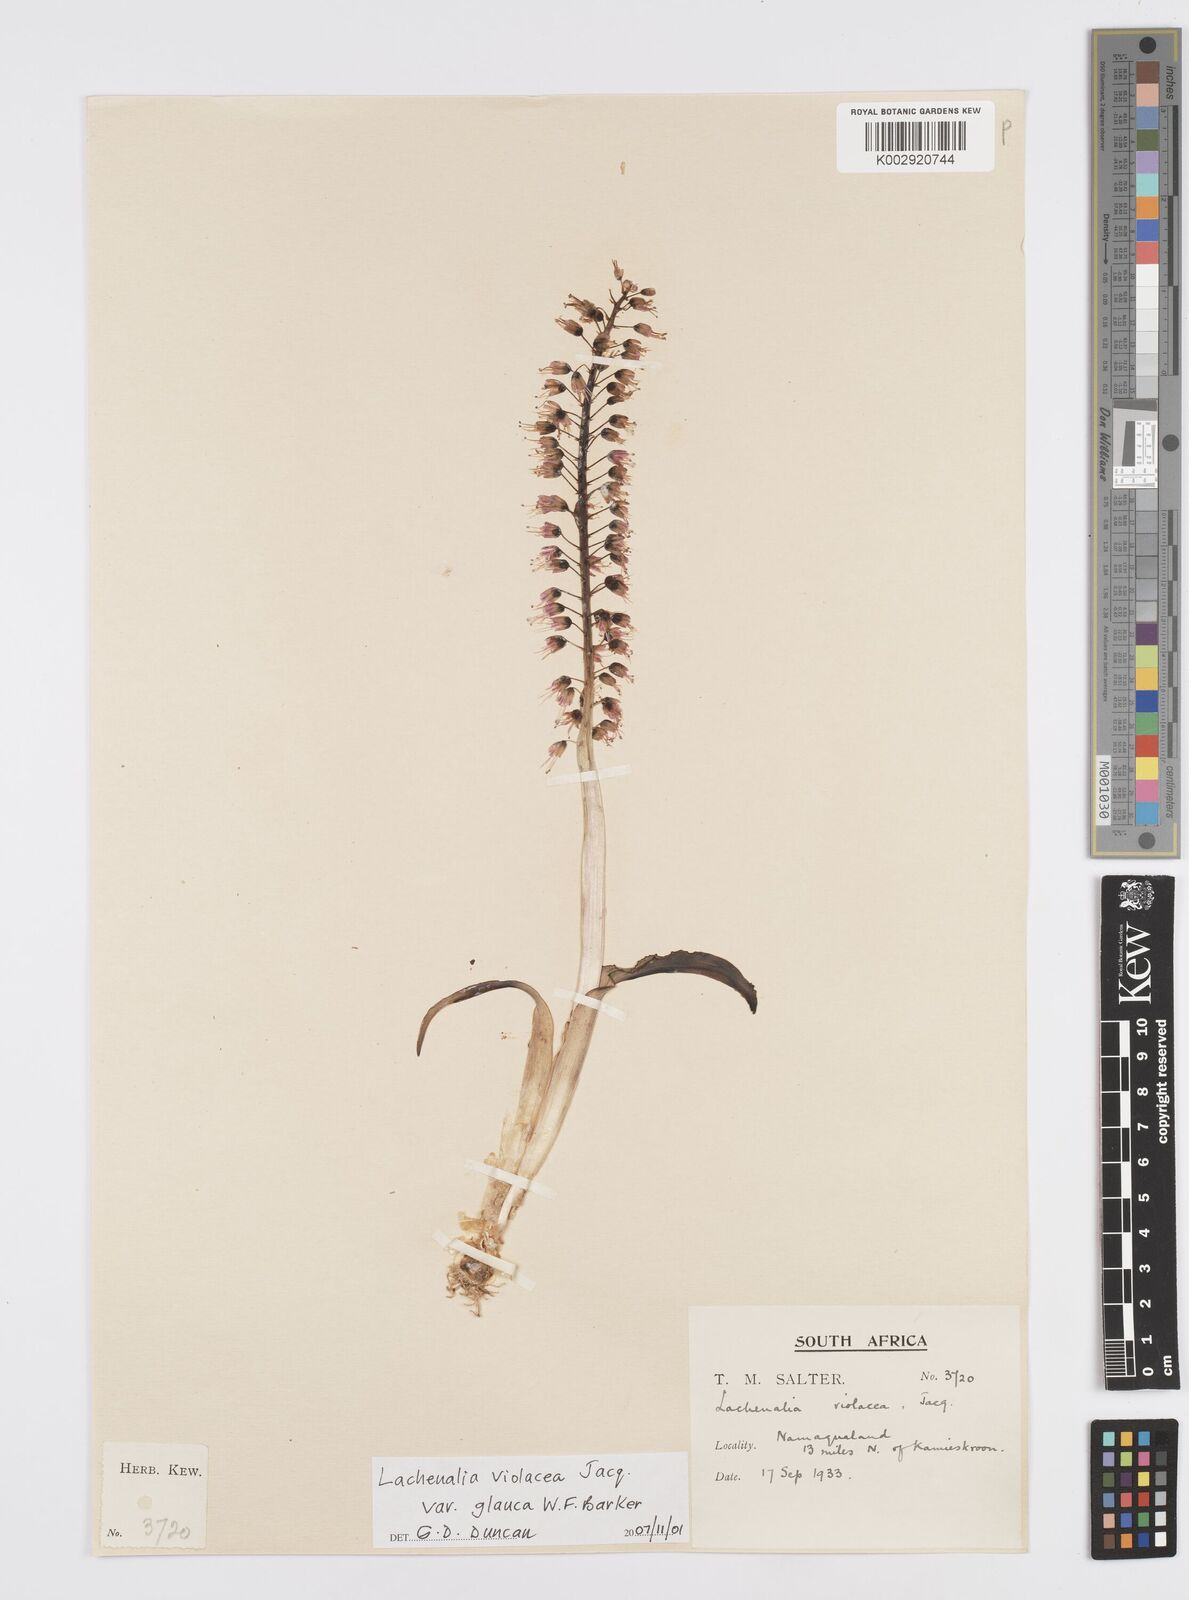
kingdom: Plantae
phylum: Tracheophyta
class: Liliopsida
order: Asparagales
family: Asparagaceae
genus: Lachenalia
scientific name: Lachenalia violacea
